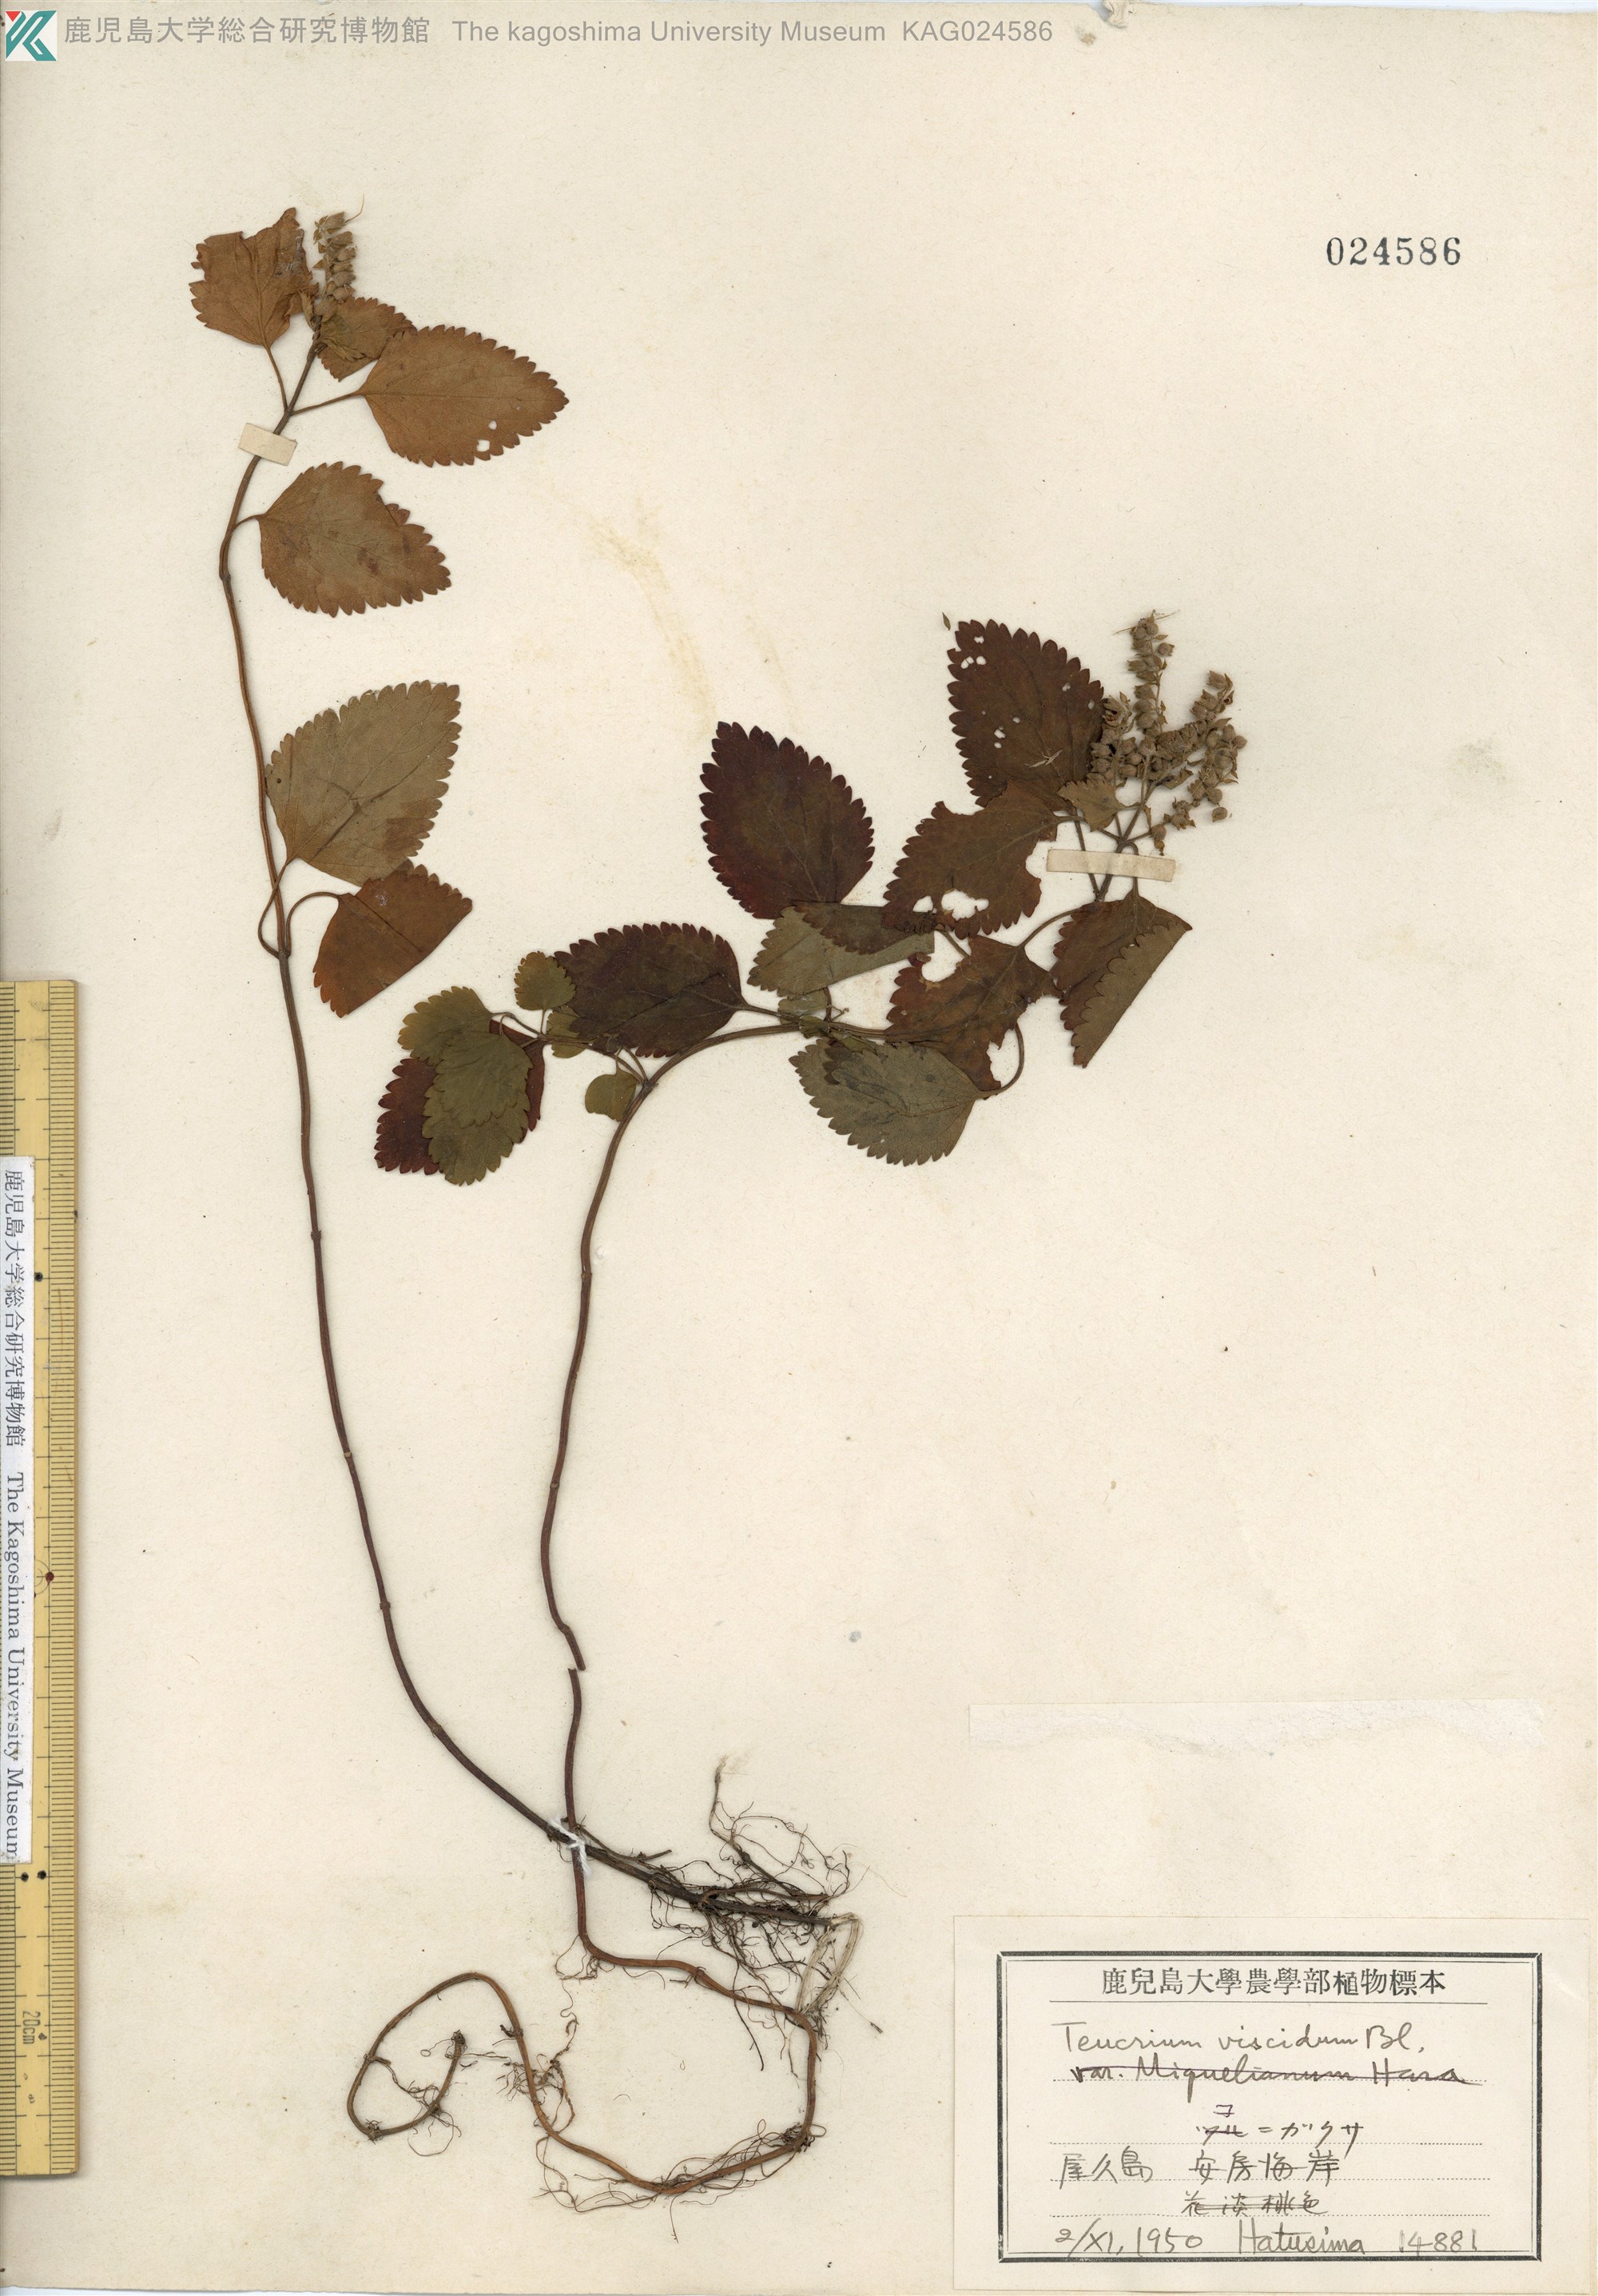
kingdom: Plantae
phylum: Tracheophyta
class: Magnoliopsida
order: Lamiales
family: Lamiaceae
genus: Teucrium
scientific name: Teucrium viscidum
